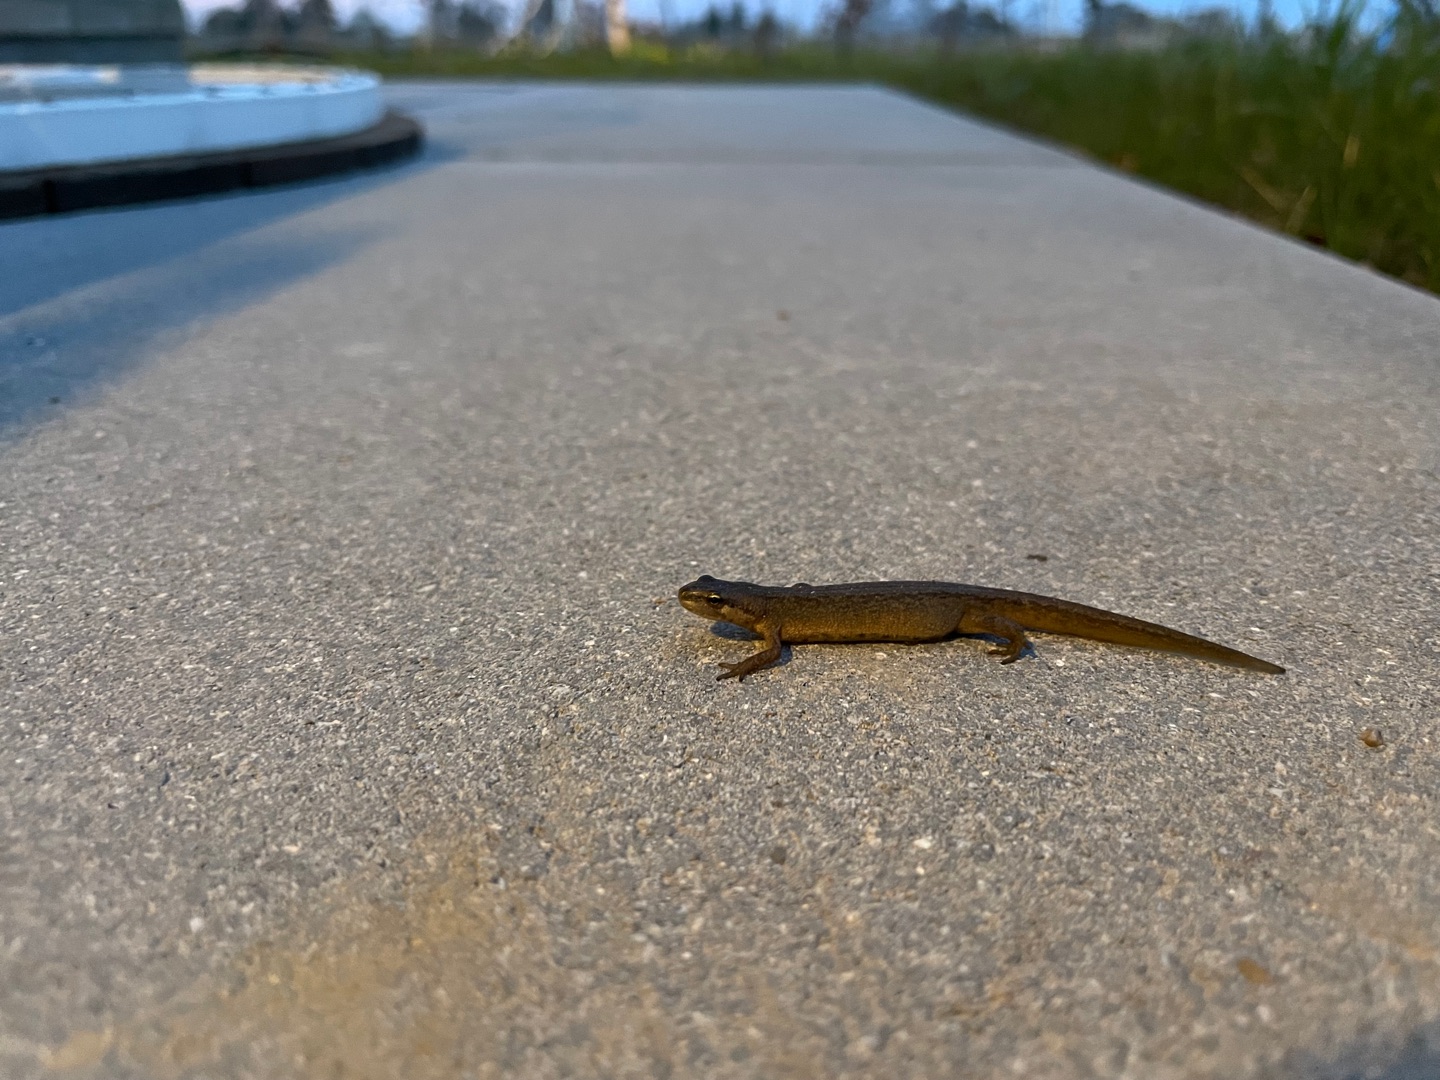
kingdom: Animalia
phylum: Chordata
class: Amphibia
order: Caudata
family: Salamandridae
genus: Lissotriton
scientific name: Lissotriton vulgaris
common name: Lille vandsalamander
